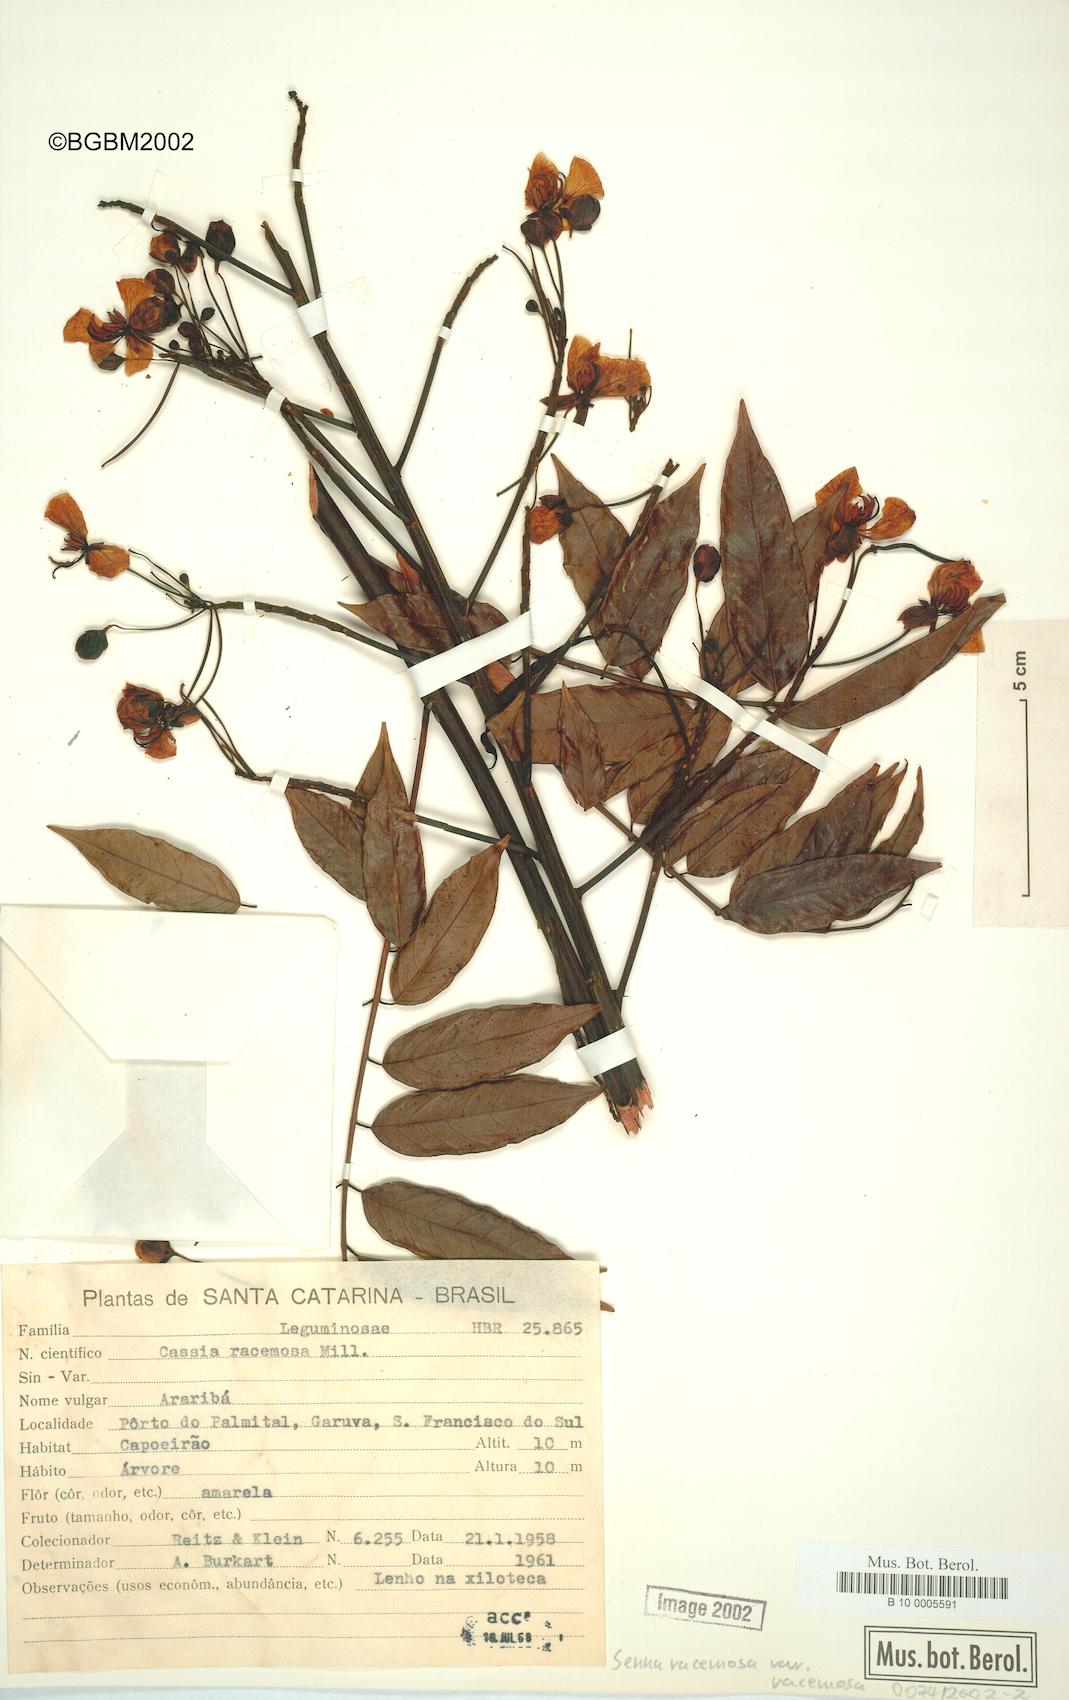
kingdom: Plantae
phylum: Tracheophyta
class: Magnoliopsida
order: Fabales
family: Fabaceae
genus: Senna
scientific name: Senna racemosa
